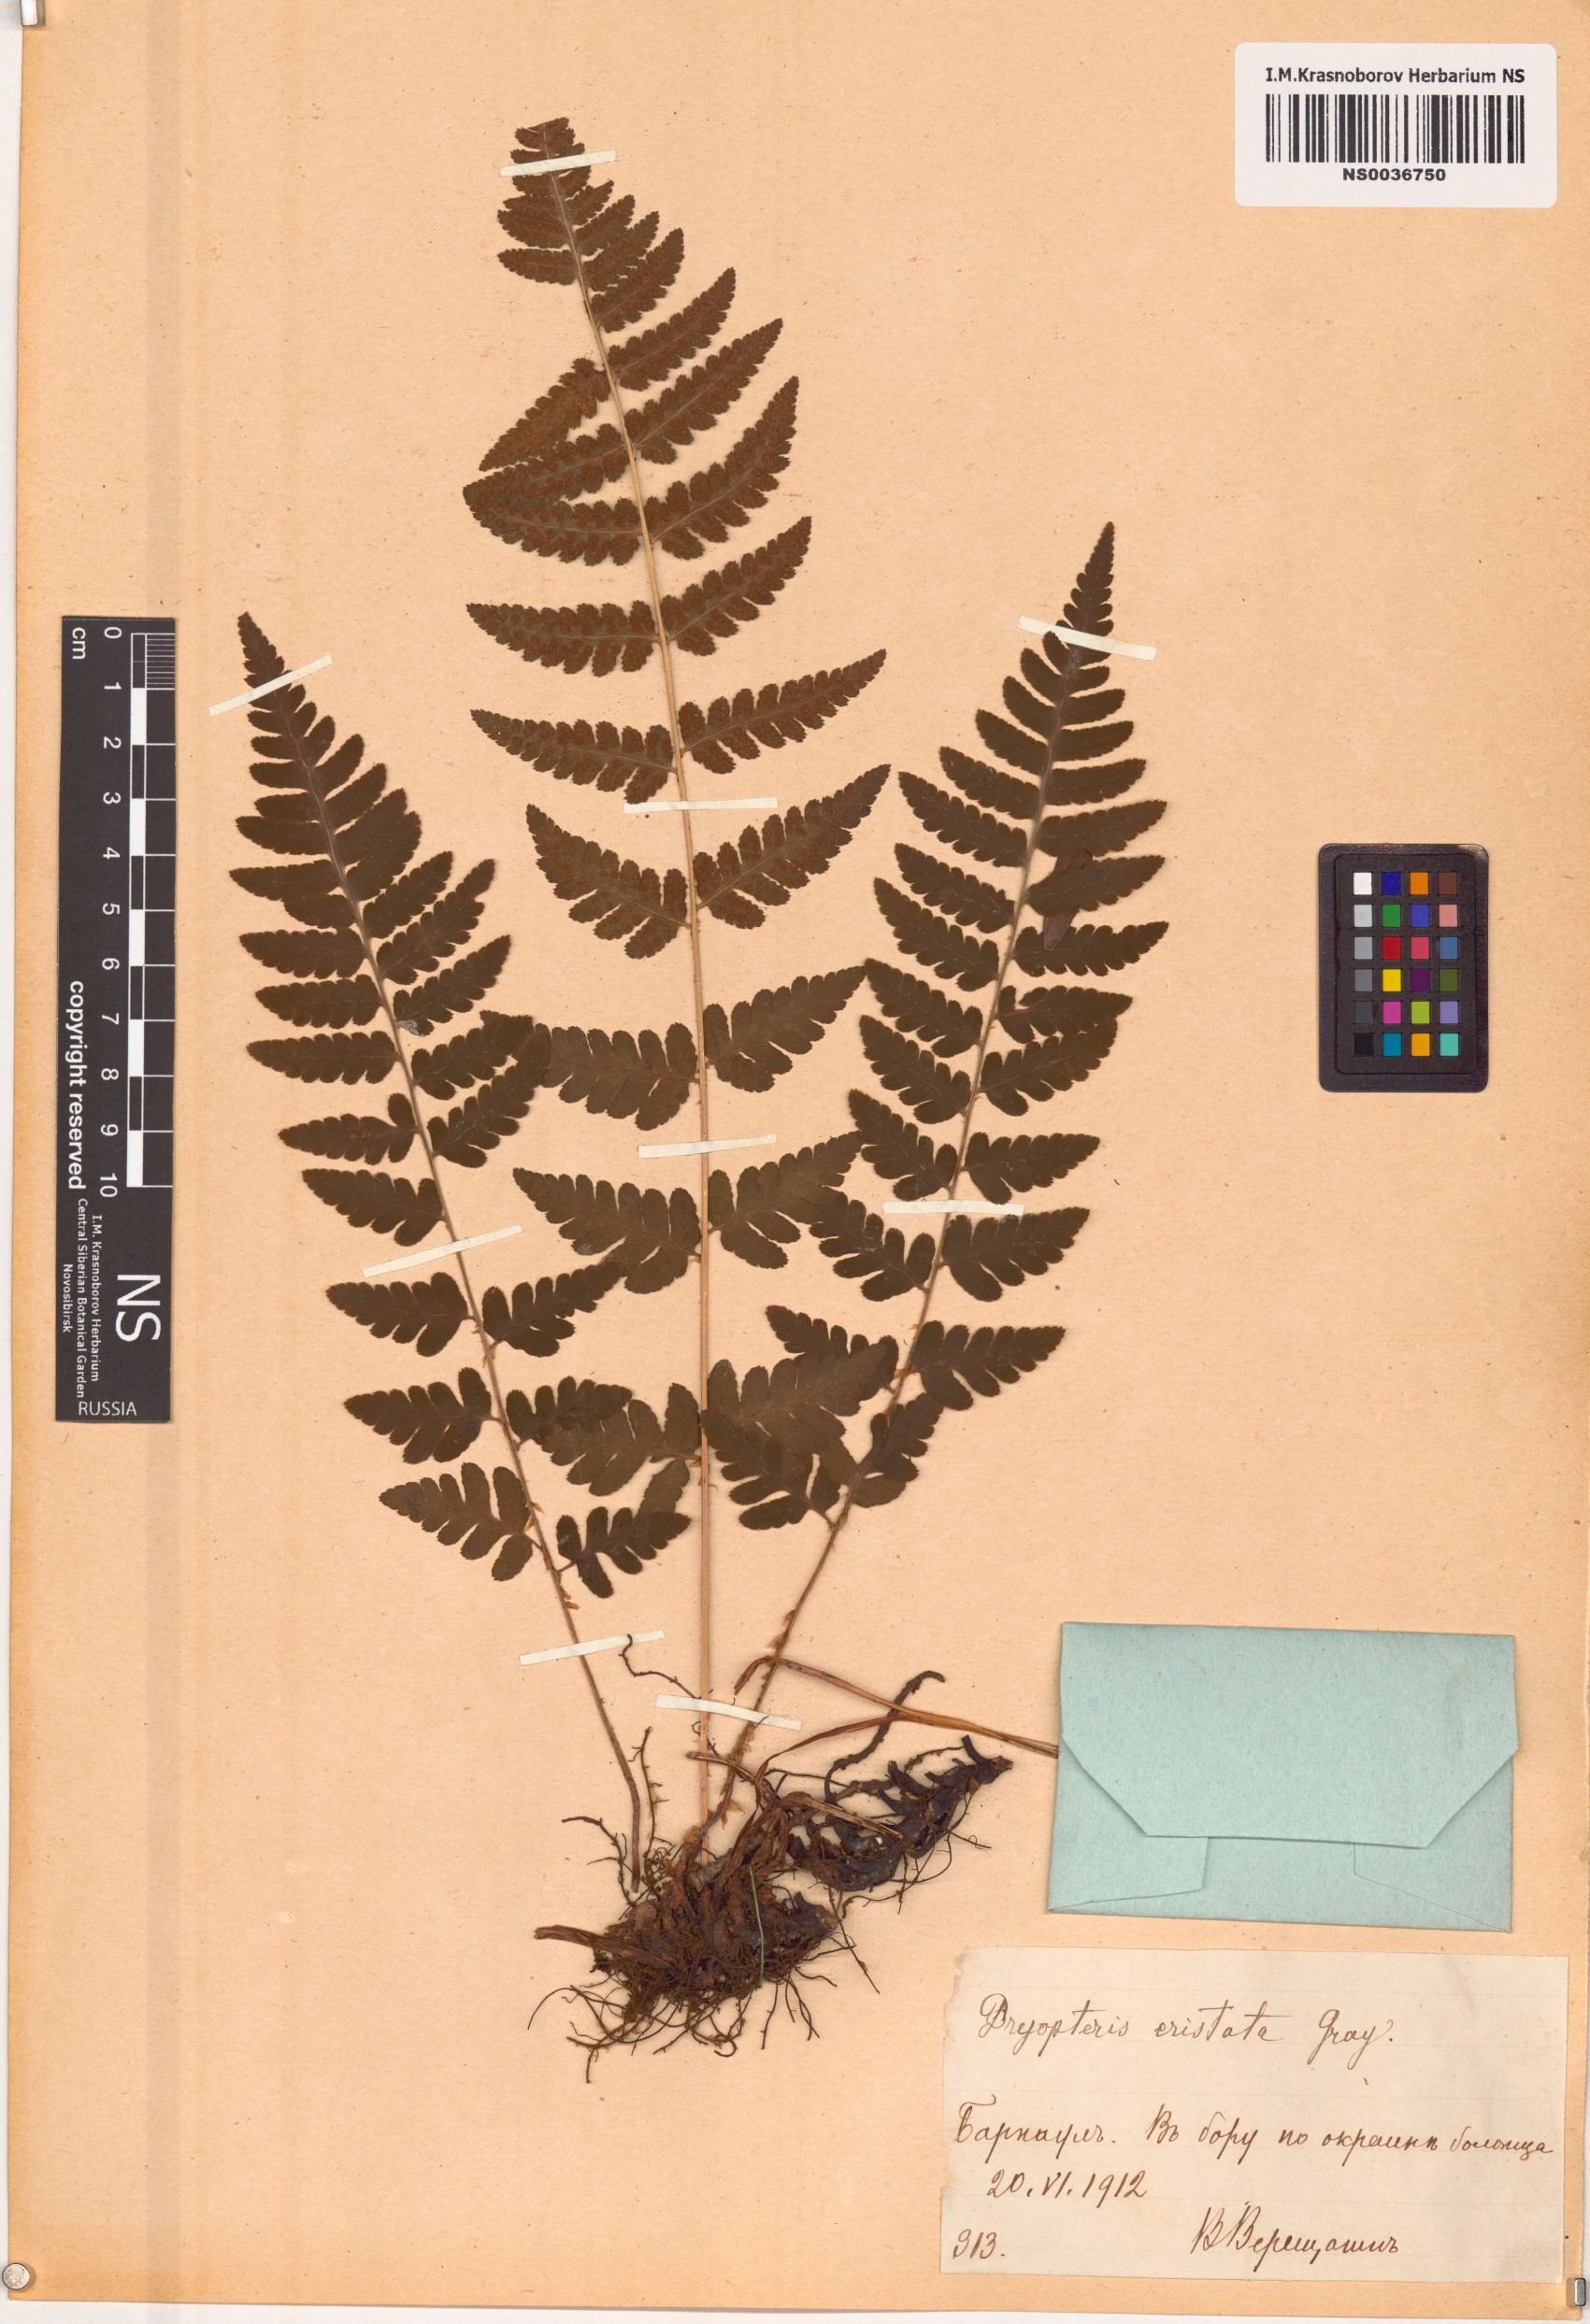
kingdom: Plantae
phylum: Tracheophyta
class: Polypodiopsida
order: Polypodiales
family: Dryopteridaceae
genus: Dryopteris
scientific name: Dryopteris cristata
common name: Crested wood fern
